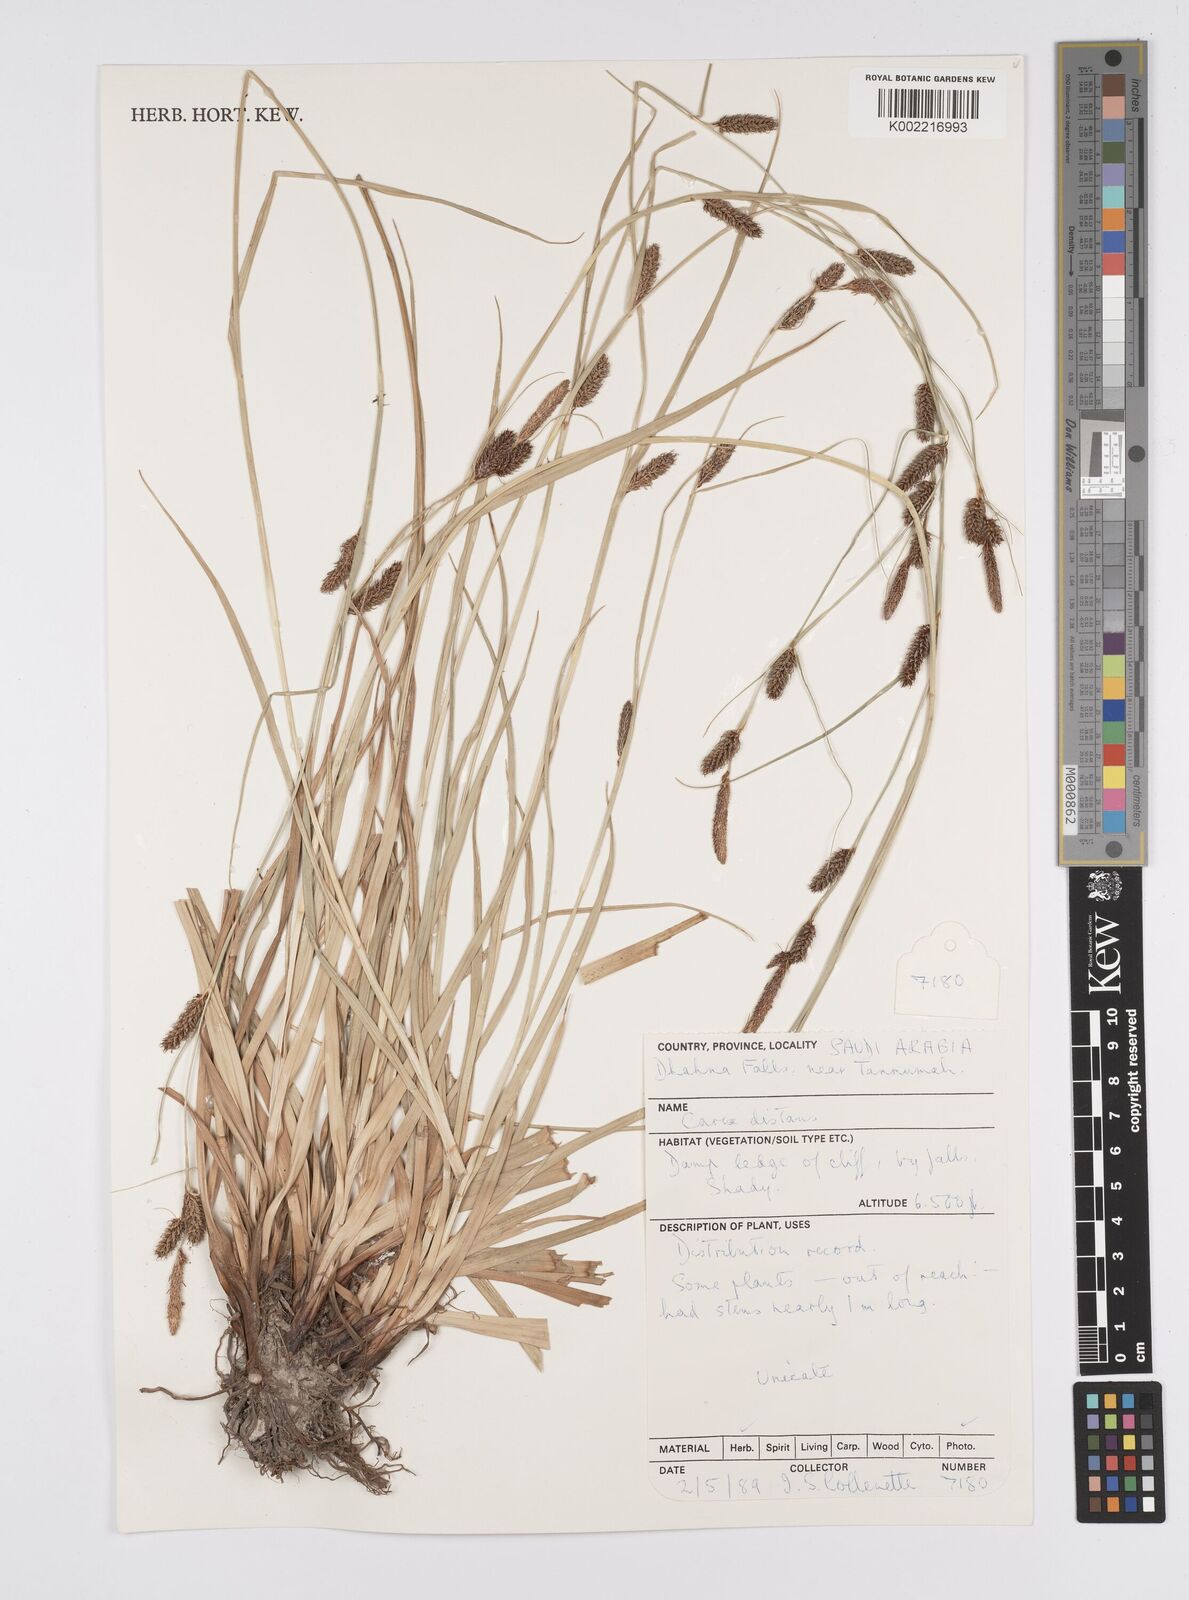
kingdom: Plantae
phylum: Tracheophyta
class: Liliopsida
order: Poales
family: Cyperaceae
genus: Carex
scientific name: Carex distans
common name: Distant sedge
